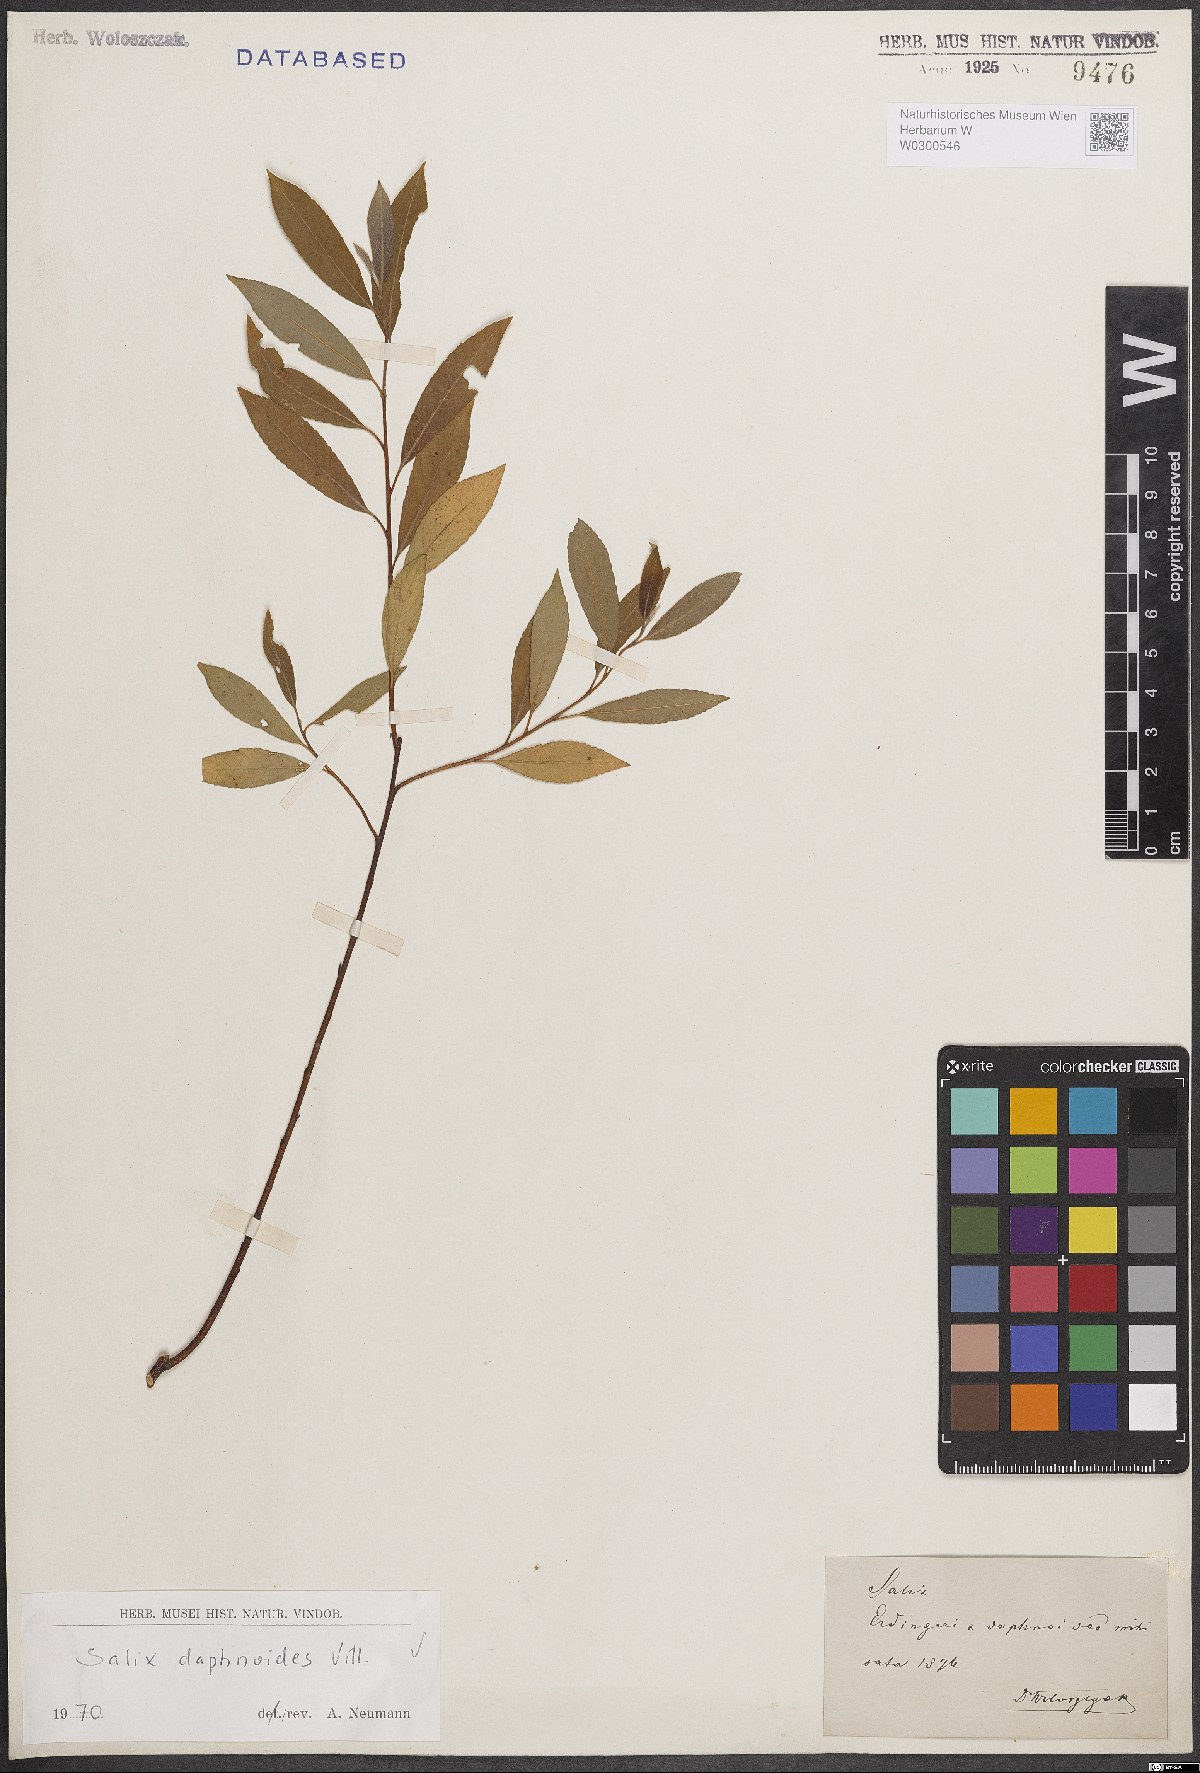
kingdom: Plantae
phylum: Tracheophyta
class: Magnoliopsida
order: Malpighiales
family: Salicaceae
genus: Salix
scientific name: Salix daphnoides
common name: European violet-willow
